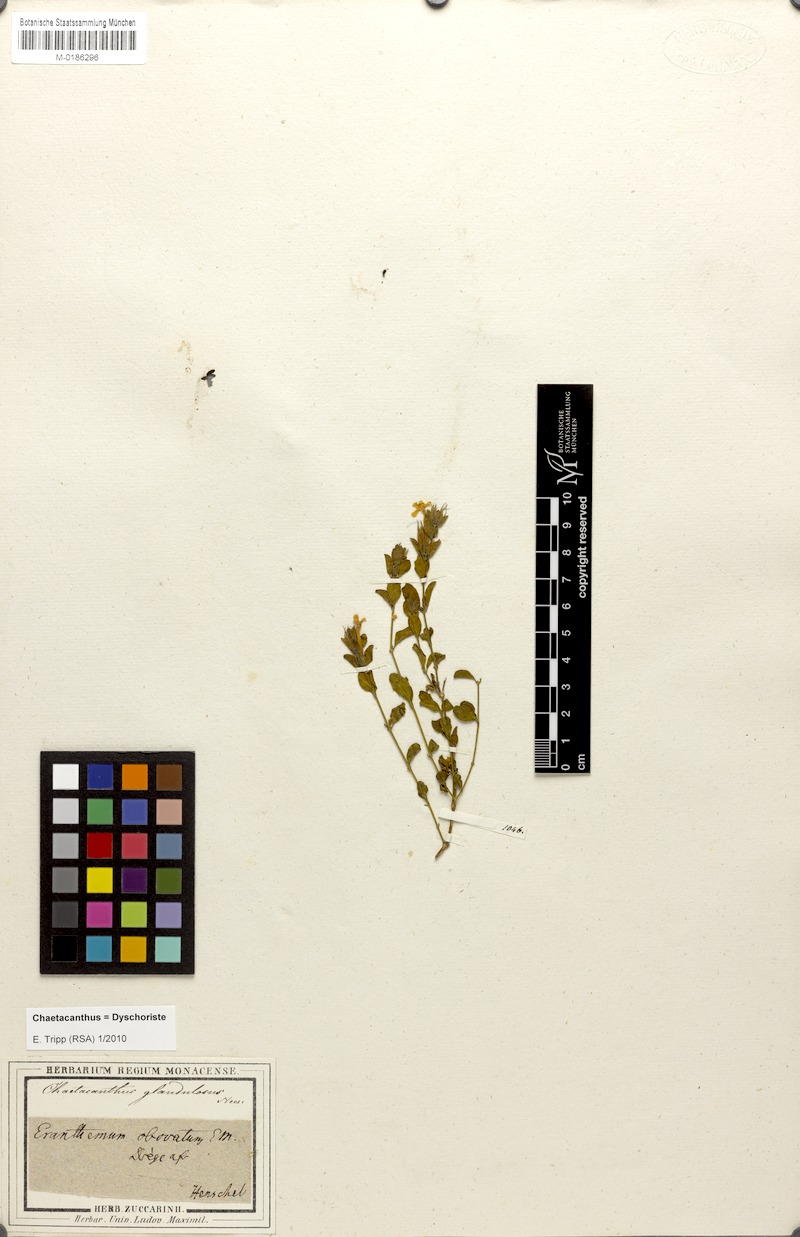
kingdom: Plantae
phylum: Tracheophyta
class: Magnoliopsida
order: Lamiales
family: Acanthaceae
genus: Dyschoriste
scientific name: Dyschoriste serpyllifolia
